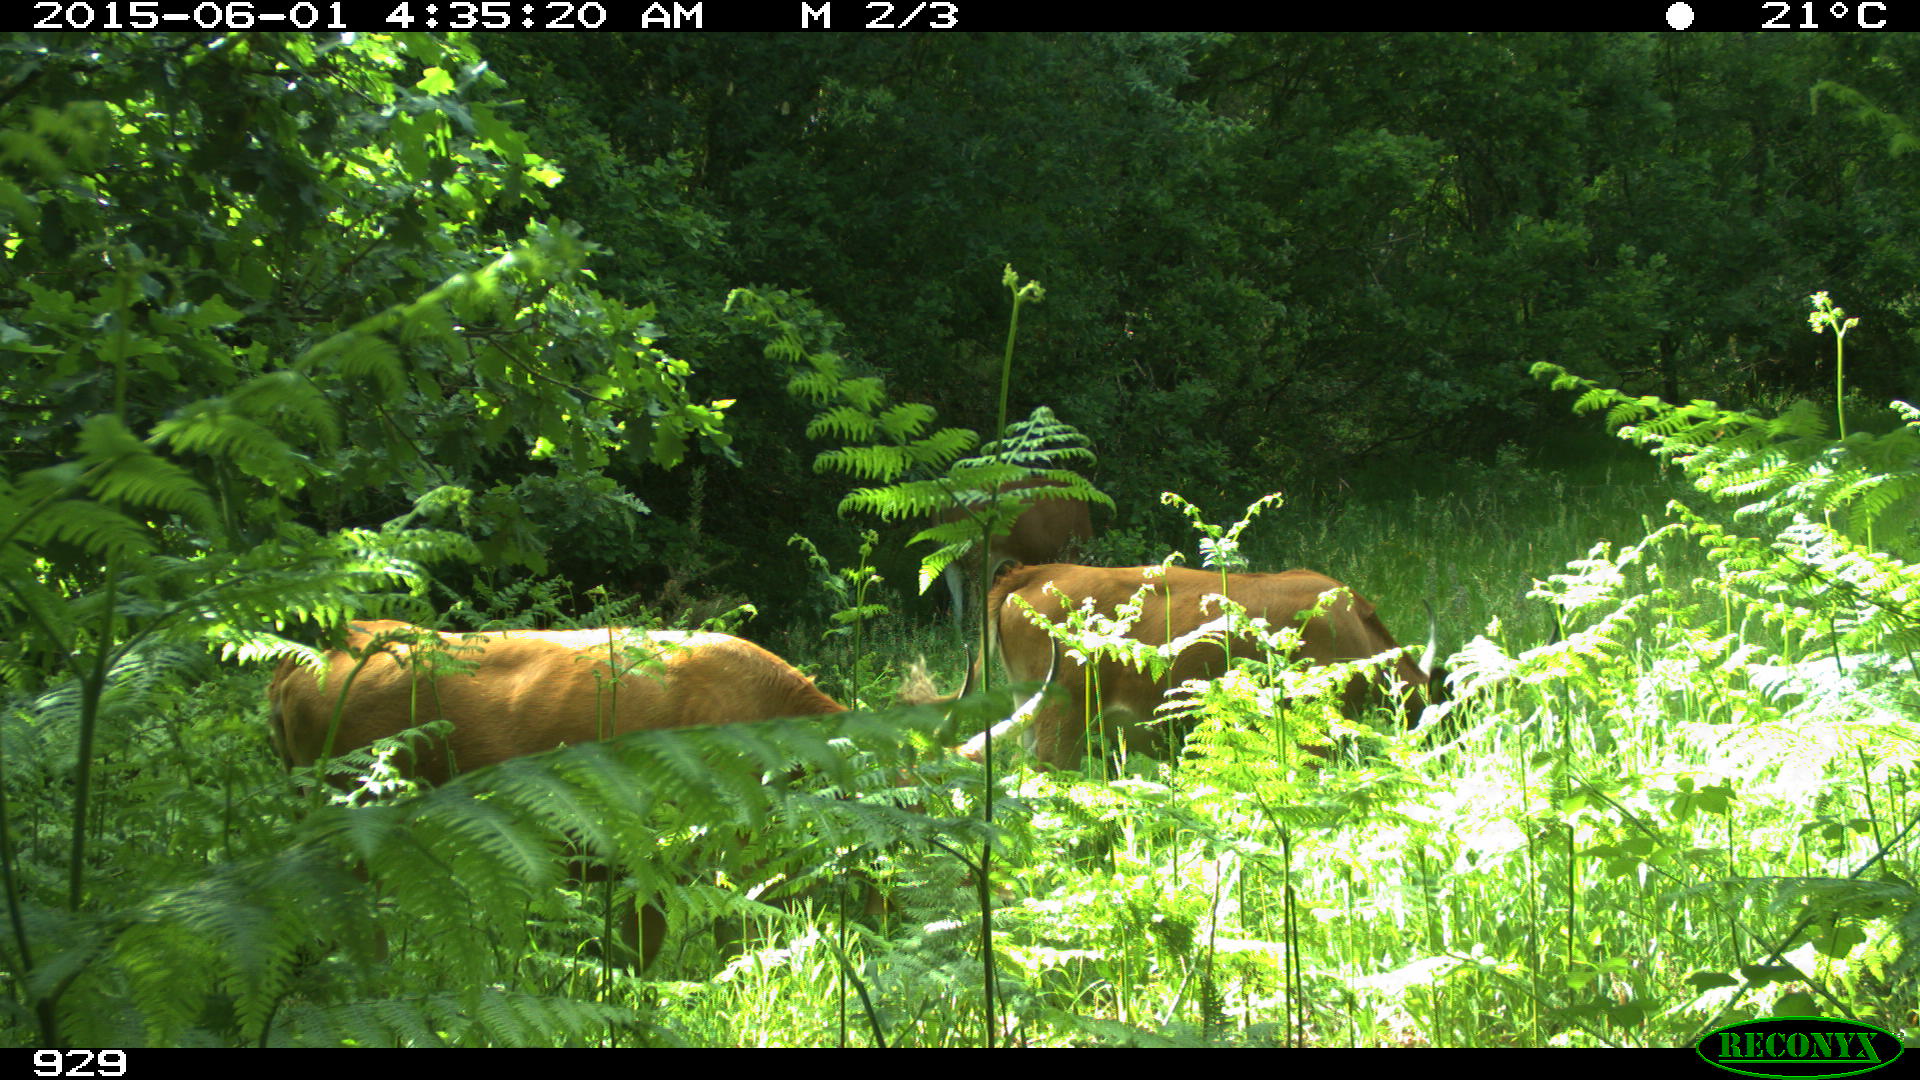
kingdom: Animalia
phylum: Chordata
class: Mammalia
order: Artiodactyla
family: Bovidae
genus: Bos
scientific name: Bos taurus
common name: Domesticated cattle
